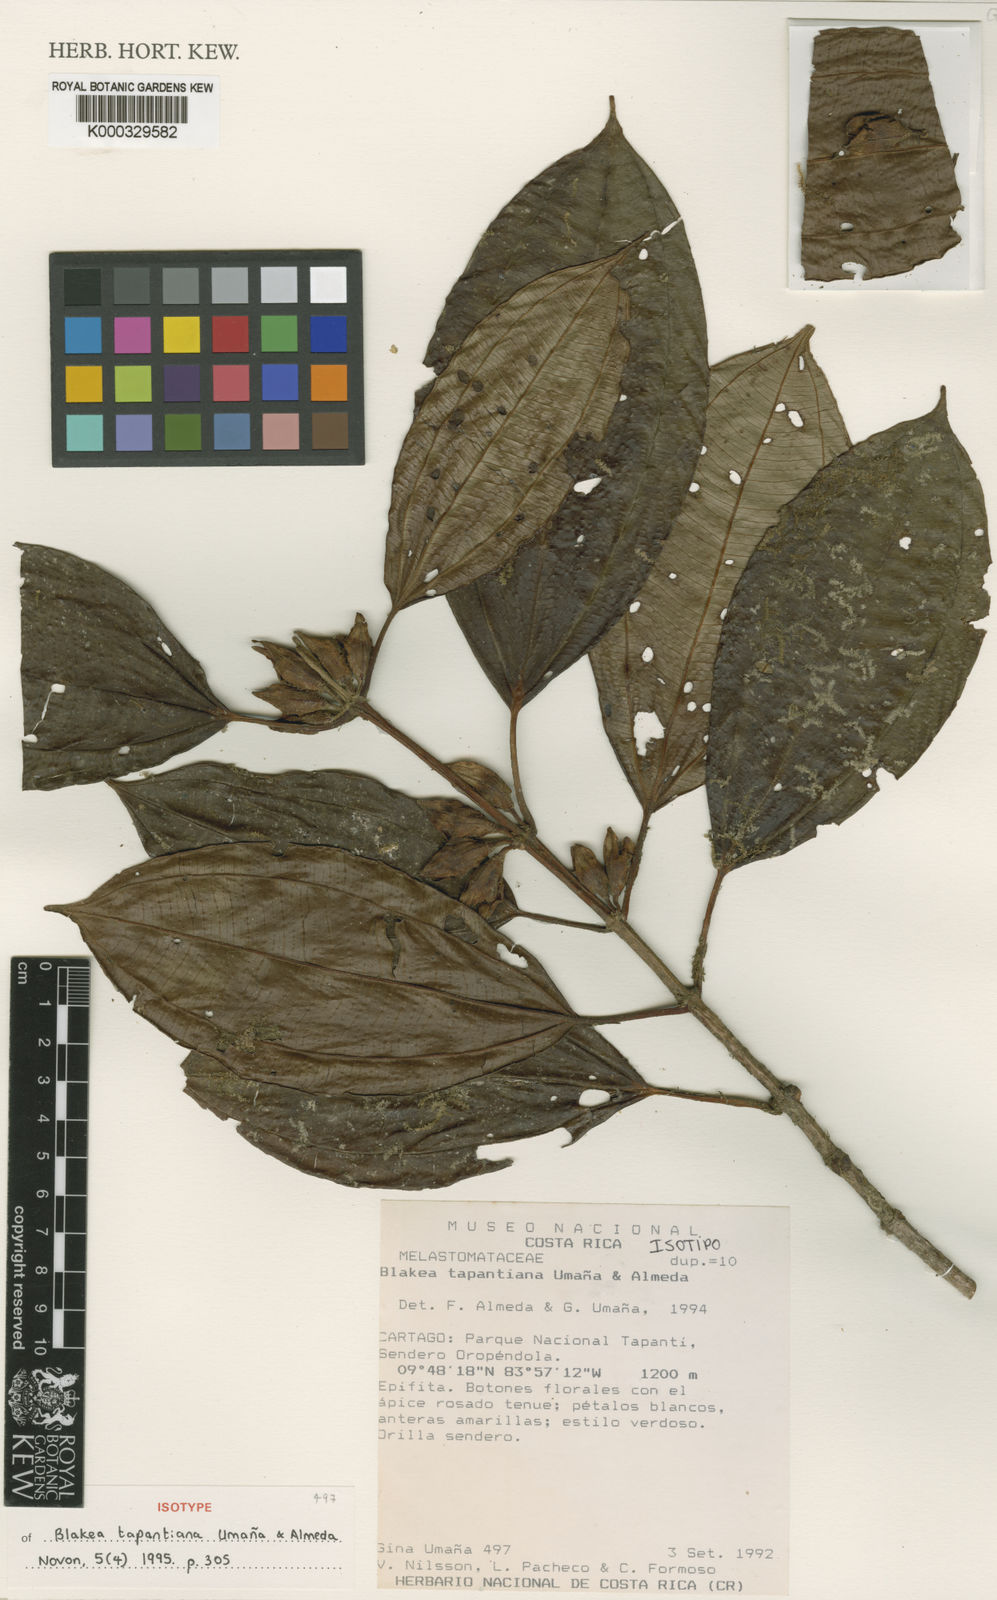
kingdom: Plantae
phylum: Tracheophyta
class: Magnoliopsida
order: Myrtales
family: Melastomataceae
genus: Blakea
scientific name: Blakea
